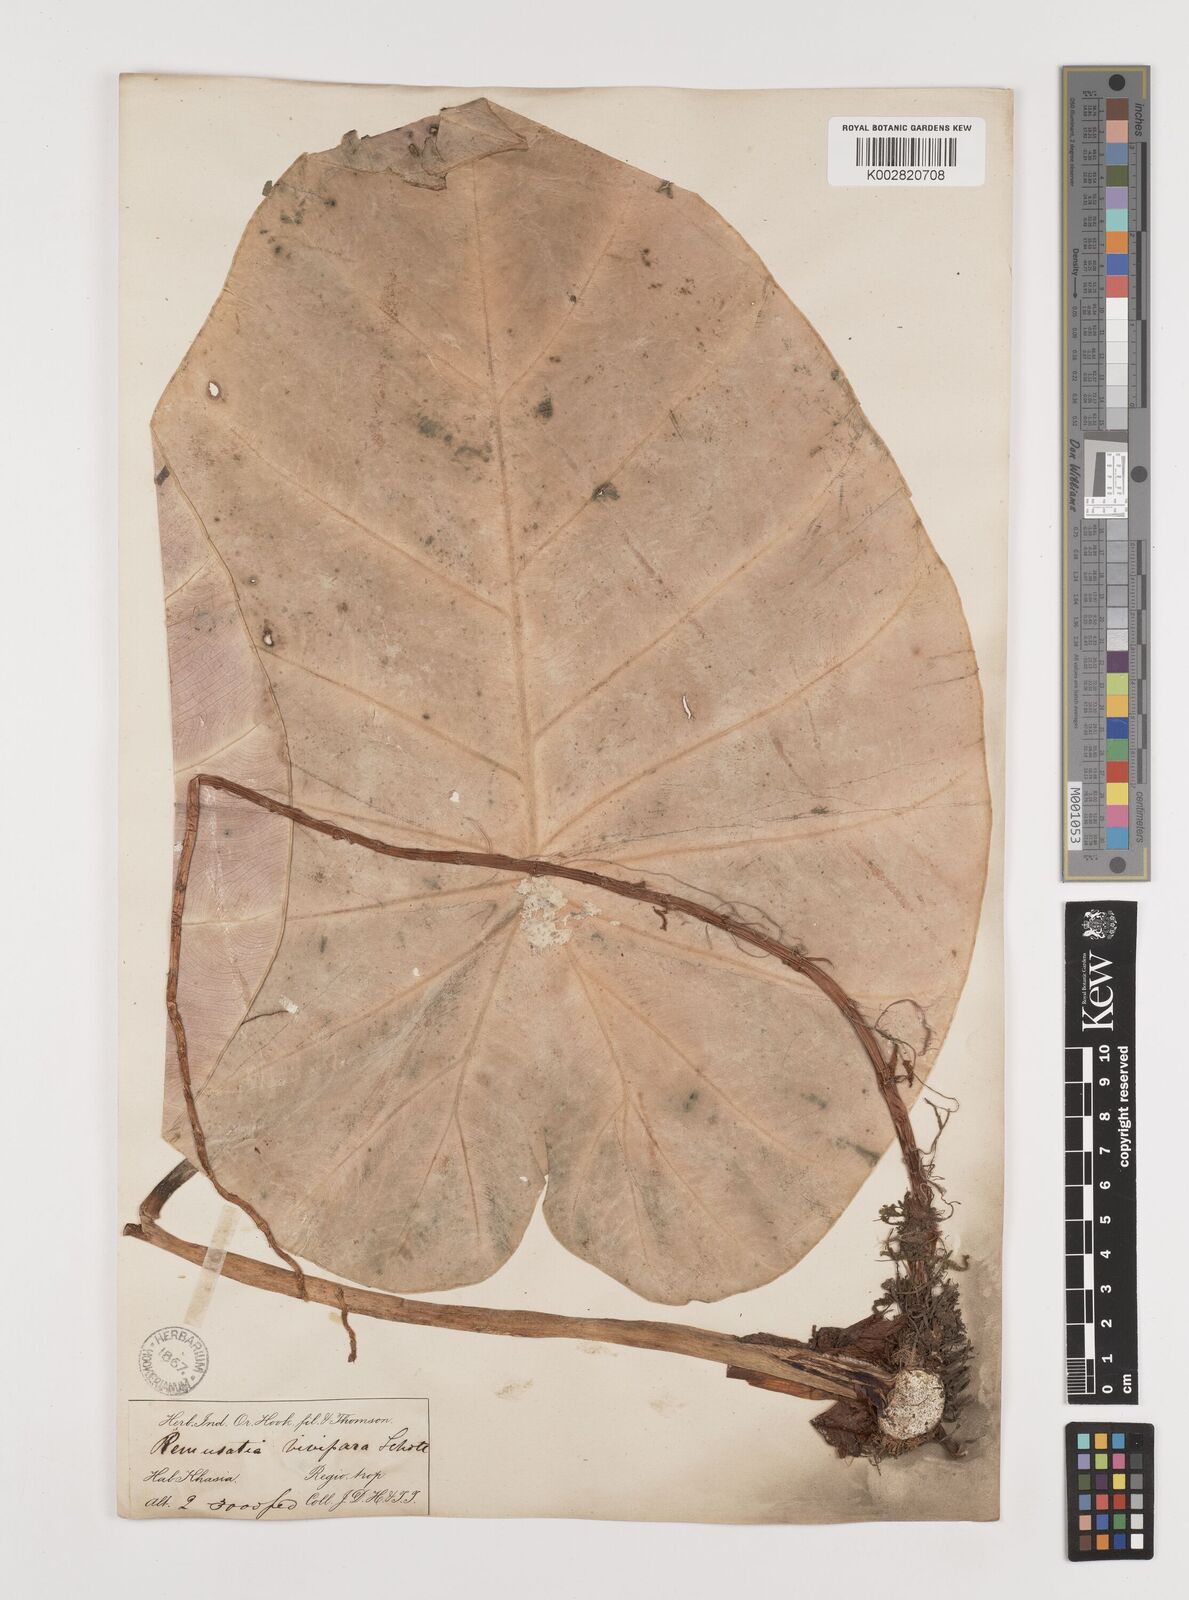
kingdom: Plantae
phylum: Tracheophyta
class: Liliopsida
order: Alismatales
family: Araceae
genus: Remusatia
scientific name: Remusatia vivipara
